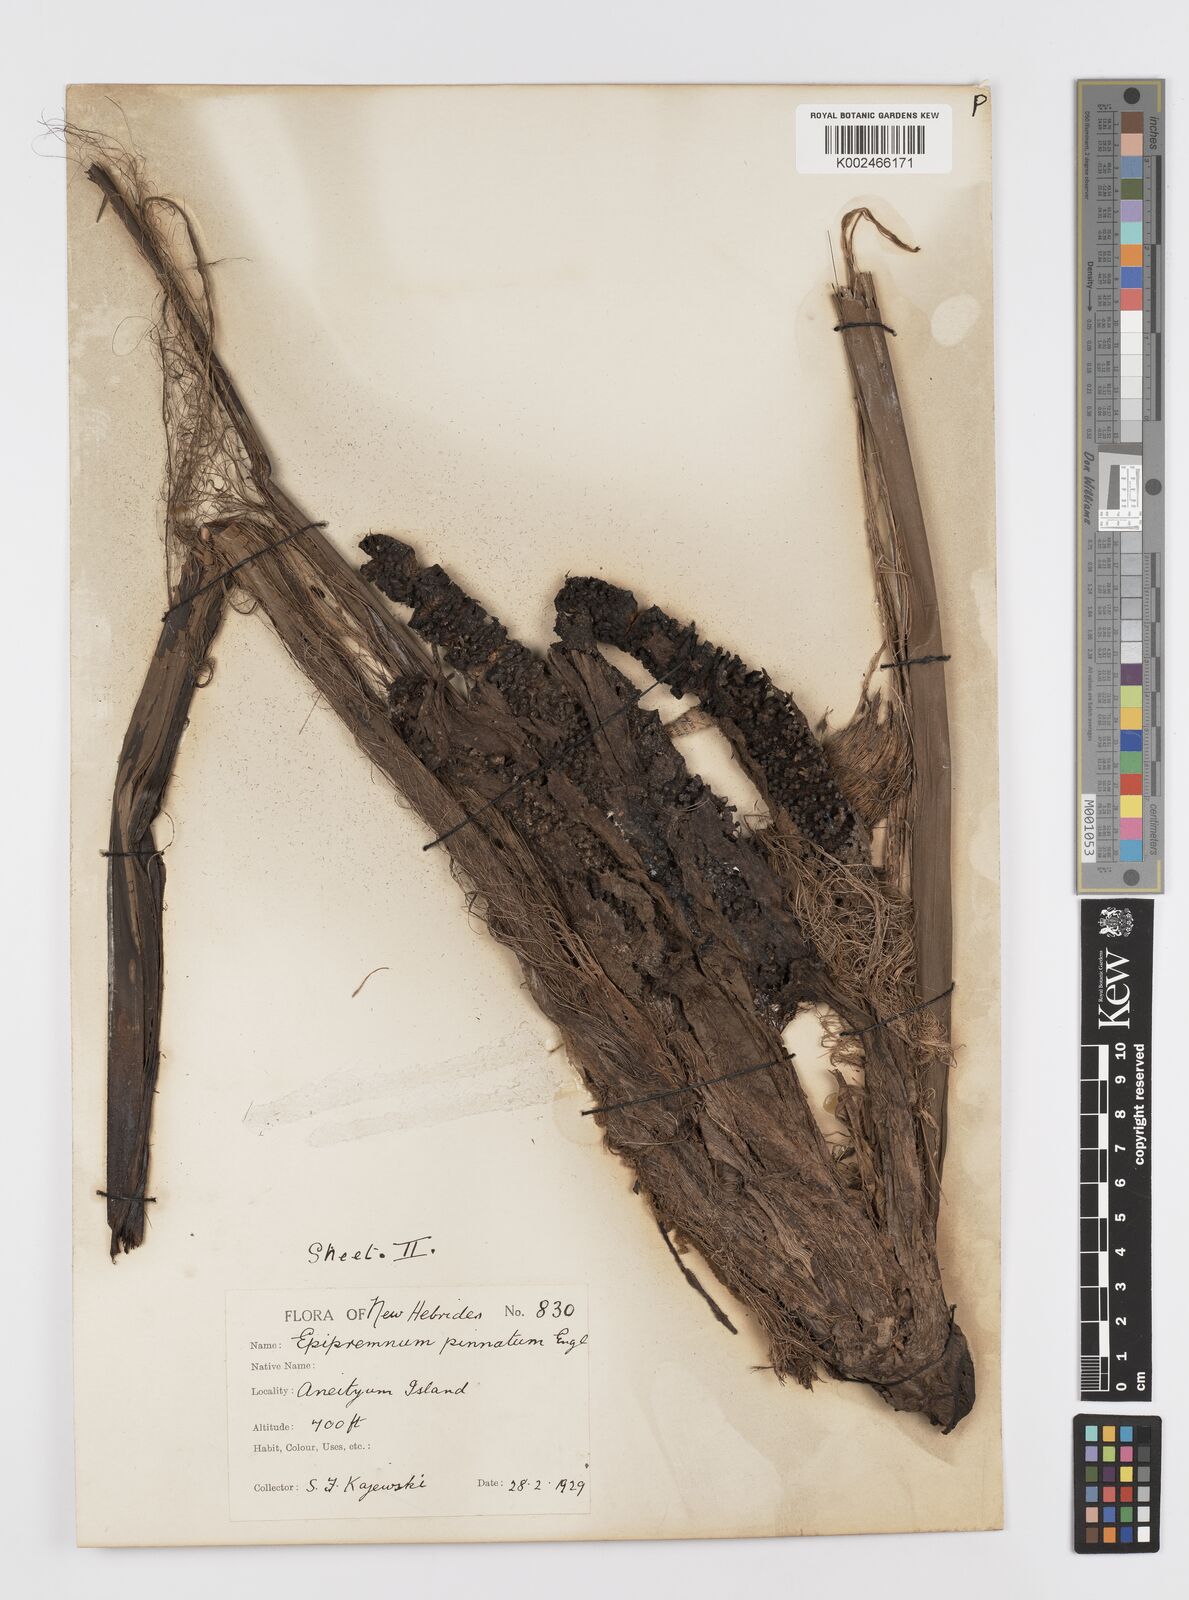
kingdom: Plantae
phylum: Tracheophyta
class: Liliopsida
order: Alismatales
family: Araceae
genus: Rhaphidophora
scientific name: Rhaphidophora korthalsii
